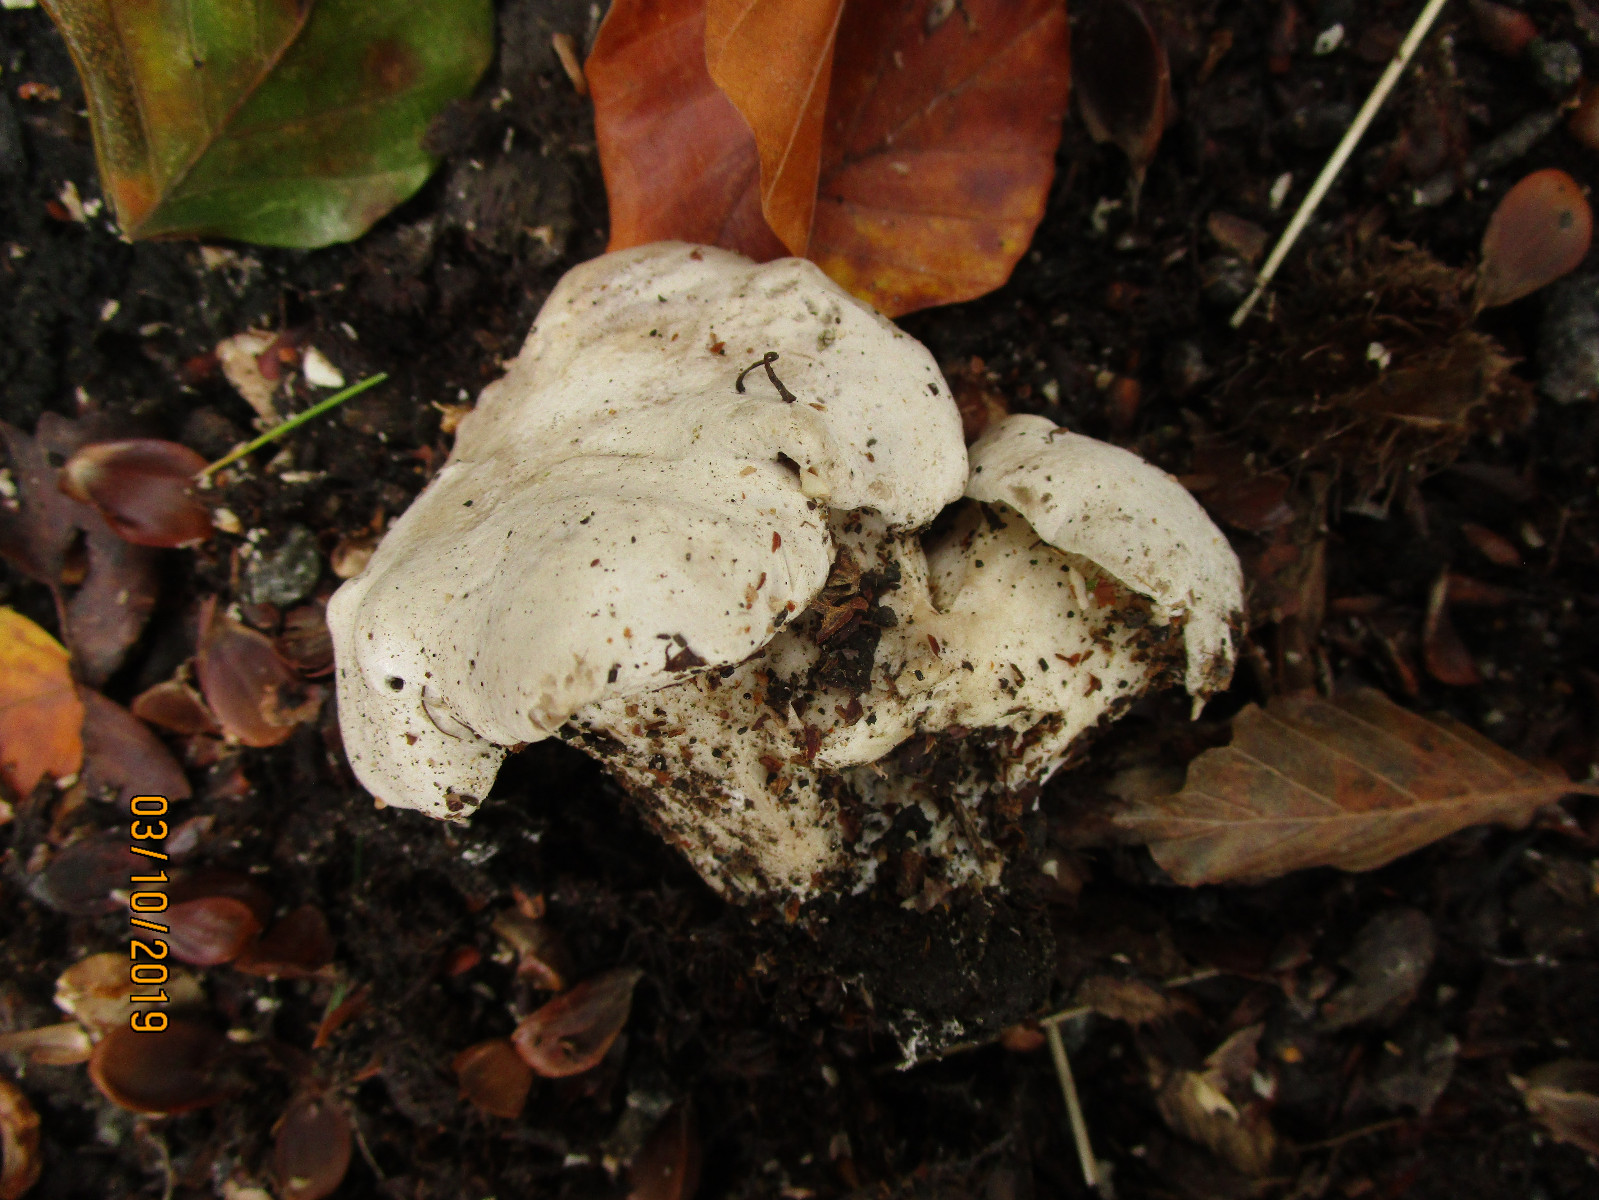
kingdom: Fungi
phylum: Basidiomycota
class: Agaricomycetes
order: Agaricales
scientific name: Agaricales
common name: champignonordenen
